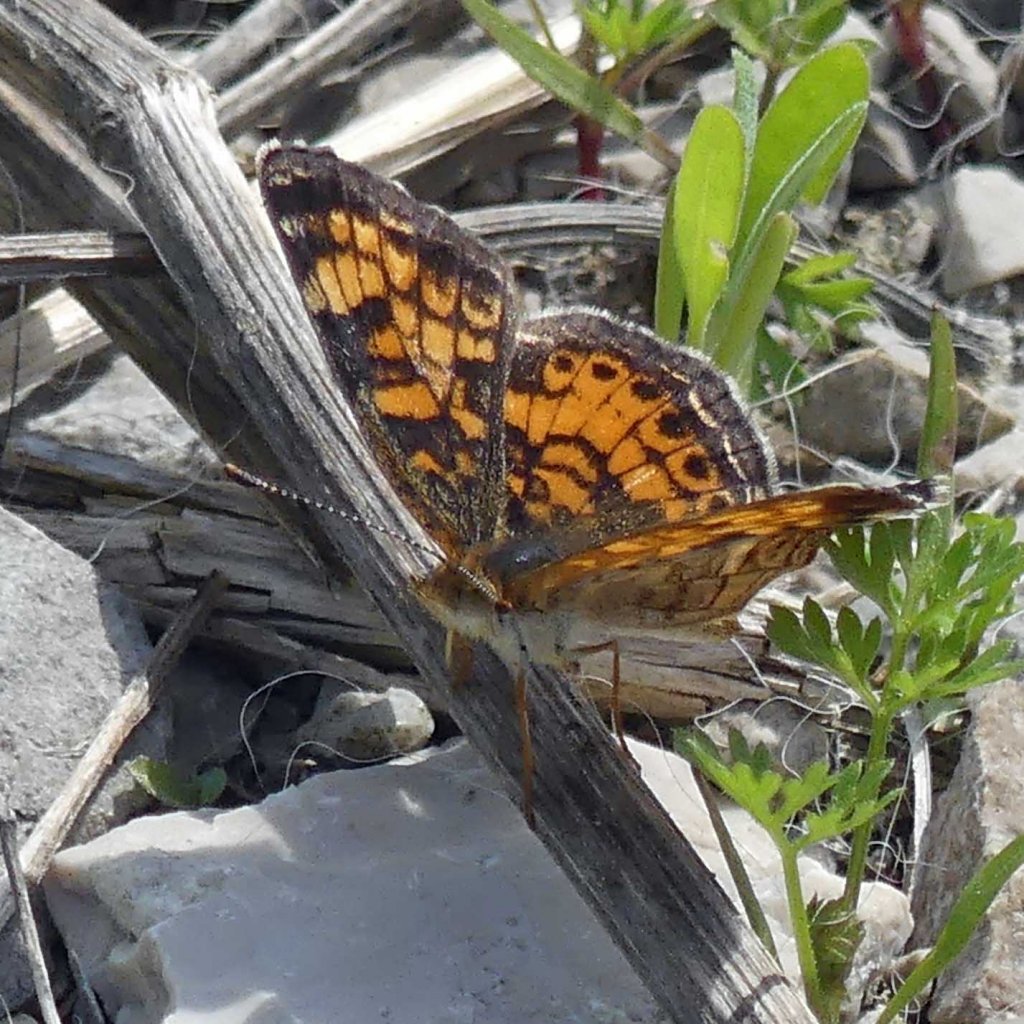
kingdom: Animalia
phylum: Arthropoda
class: Insecta
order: Lepidoptera
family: Nymphalidae
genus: Phyciodes
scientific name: Phyciodes tharos
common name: Pearl Crescent
